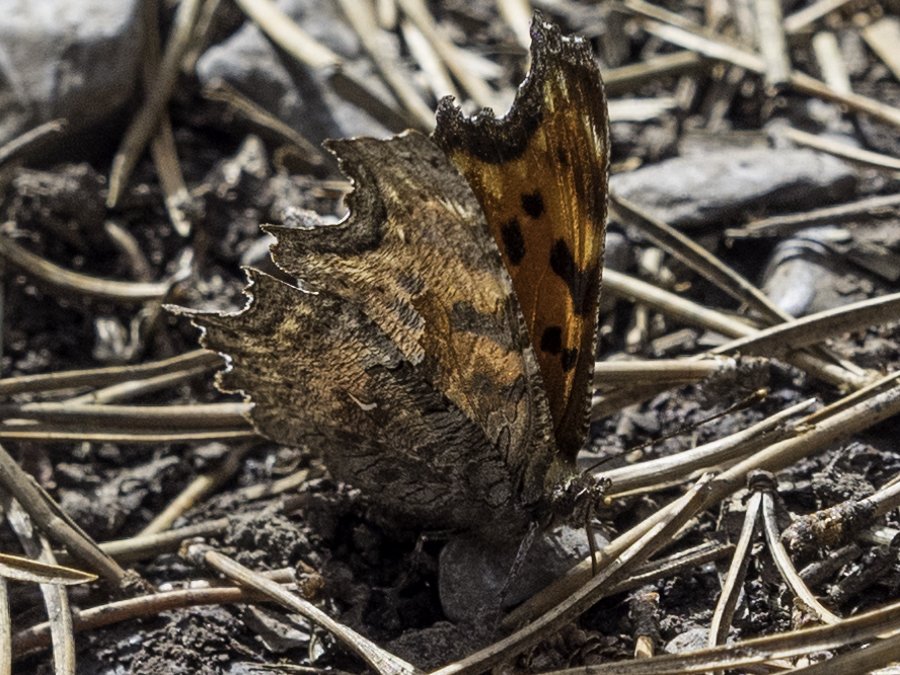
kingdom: Animalia
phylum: Arthropoda
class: Insecta
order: Lepidoptera
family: Lycaenidae
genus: Callophrys
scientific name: Callophrys polios
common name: Hoary Elfin
